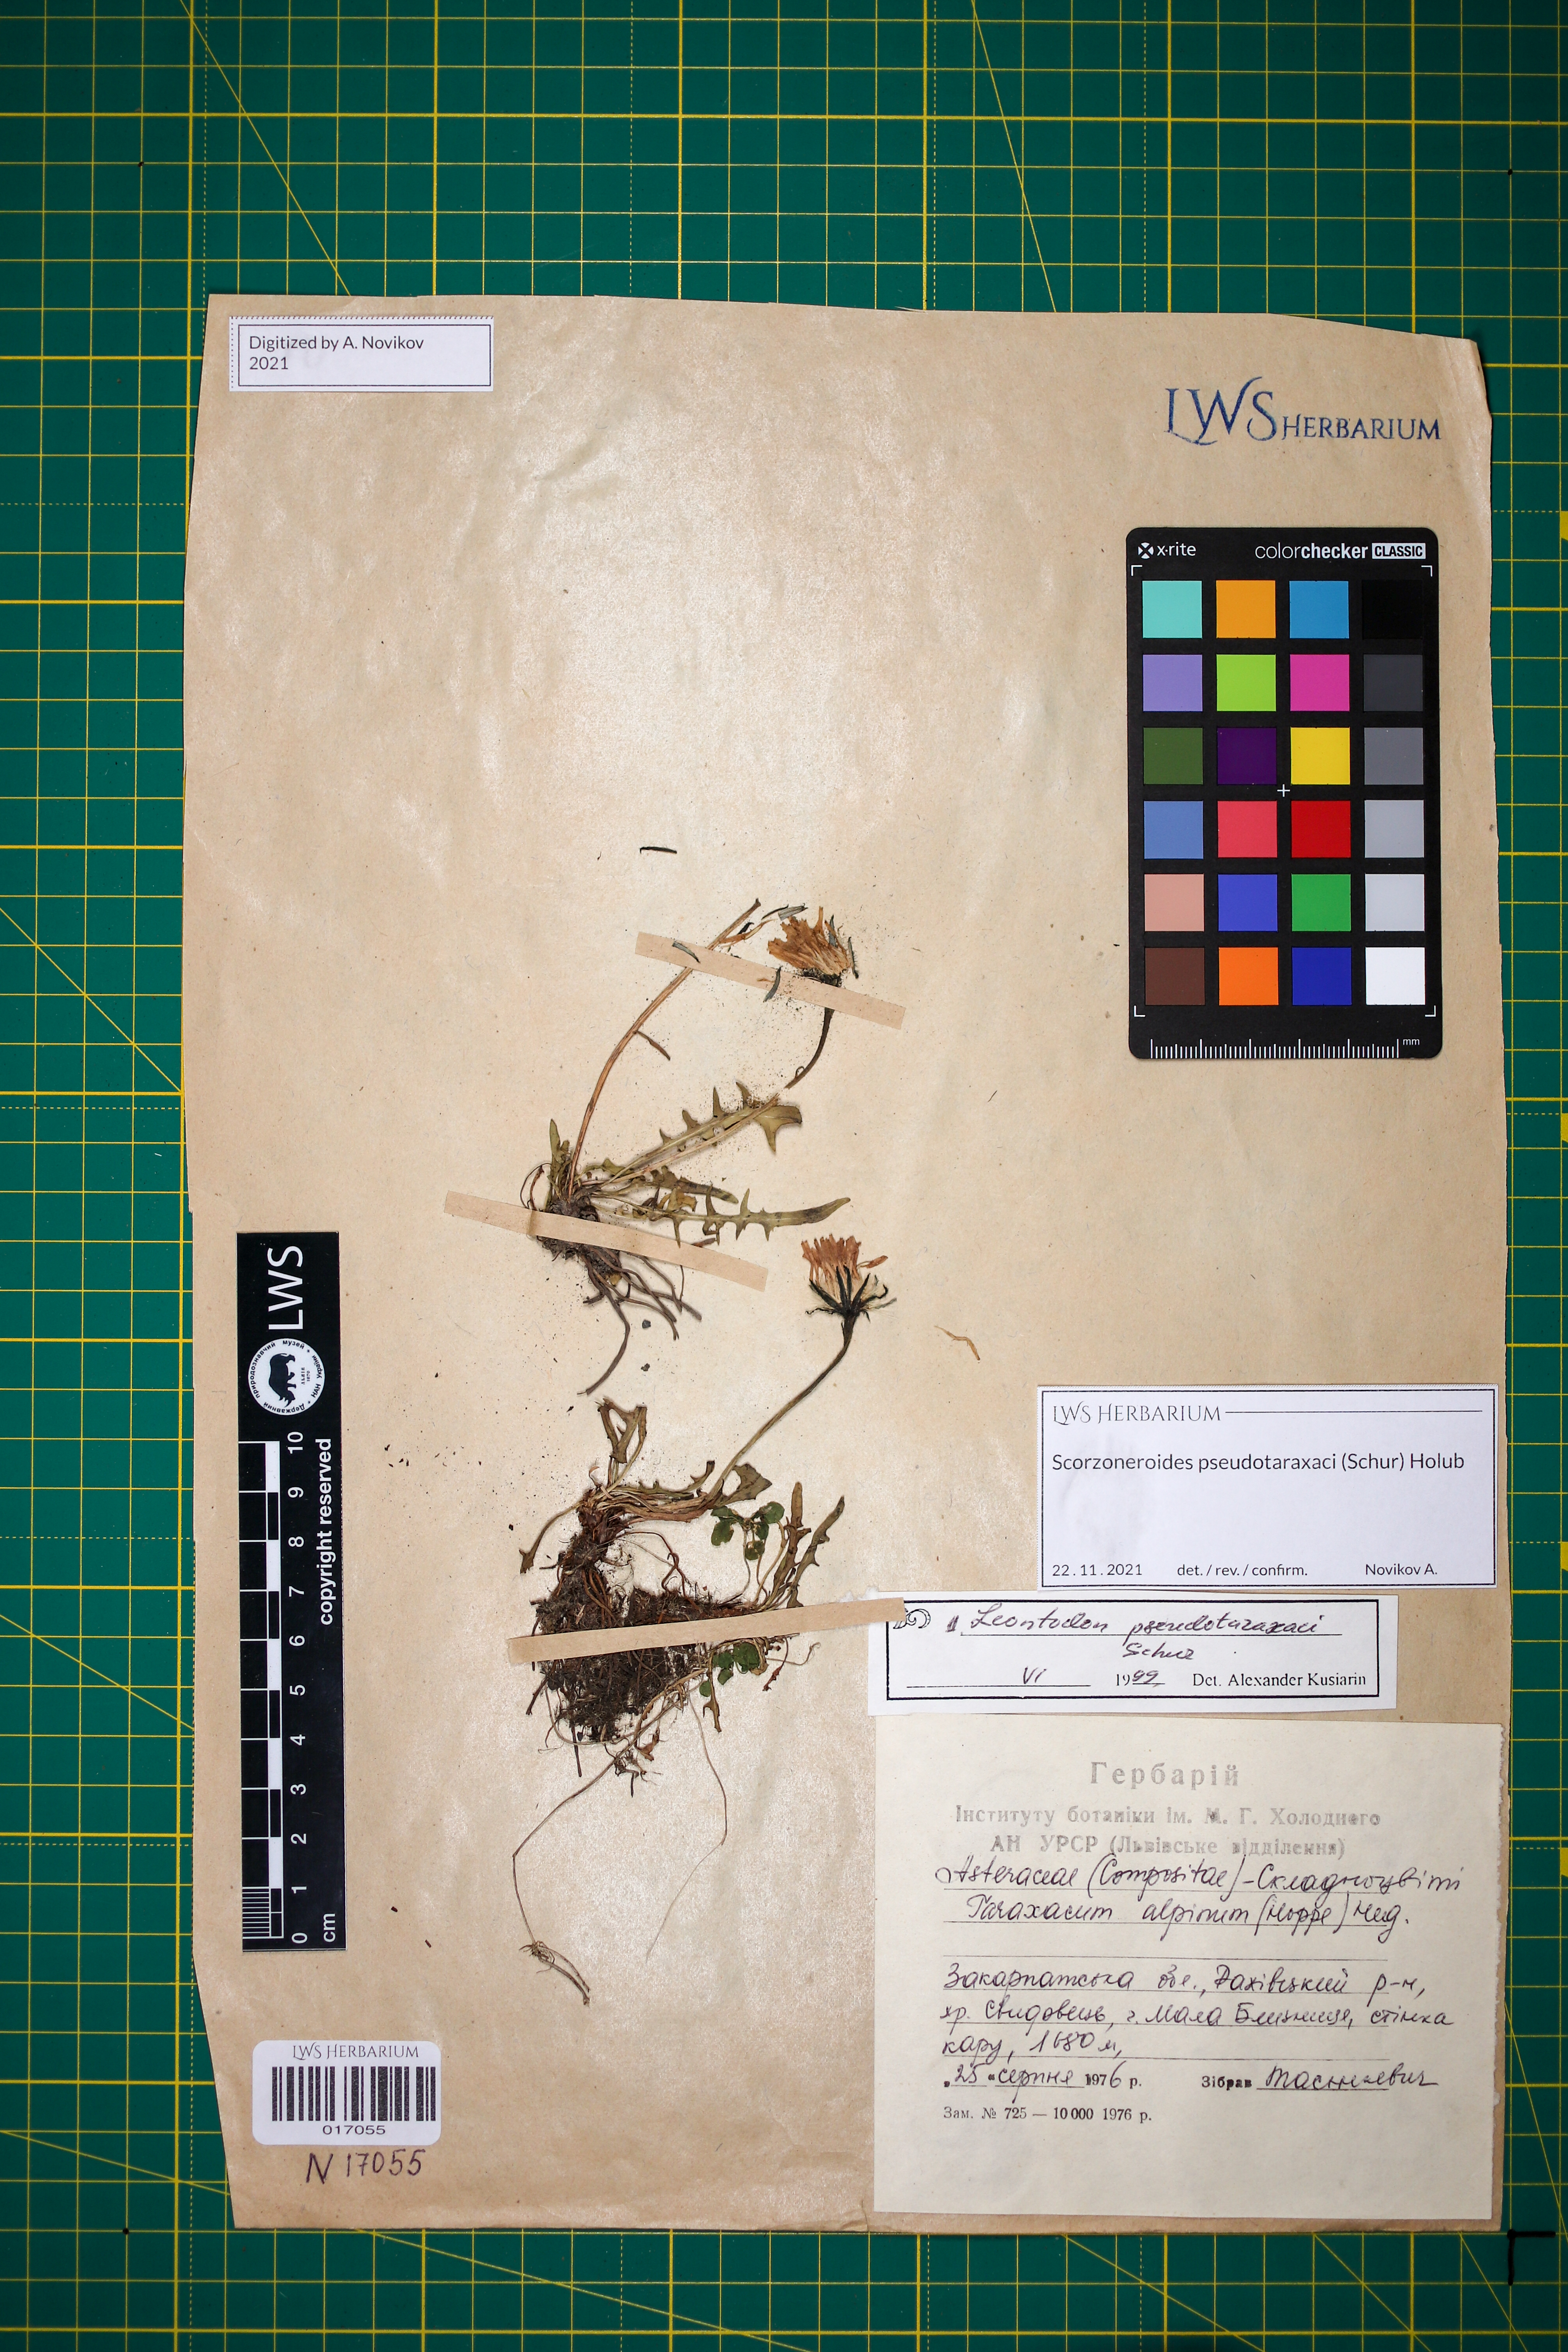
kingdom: Plantae
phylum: Tracheophyta
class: Magnoliopsida
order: Asterales
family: Asteraceae
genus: Scorzoneroides
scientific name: Scorzoneroides pseudotaraxaci
